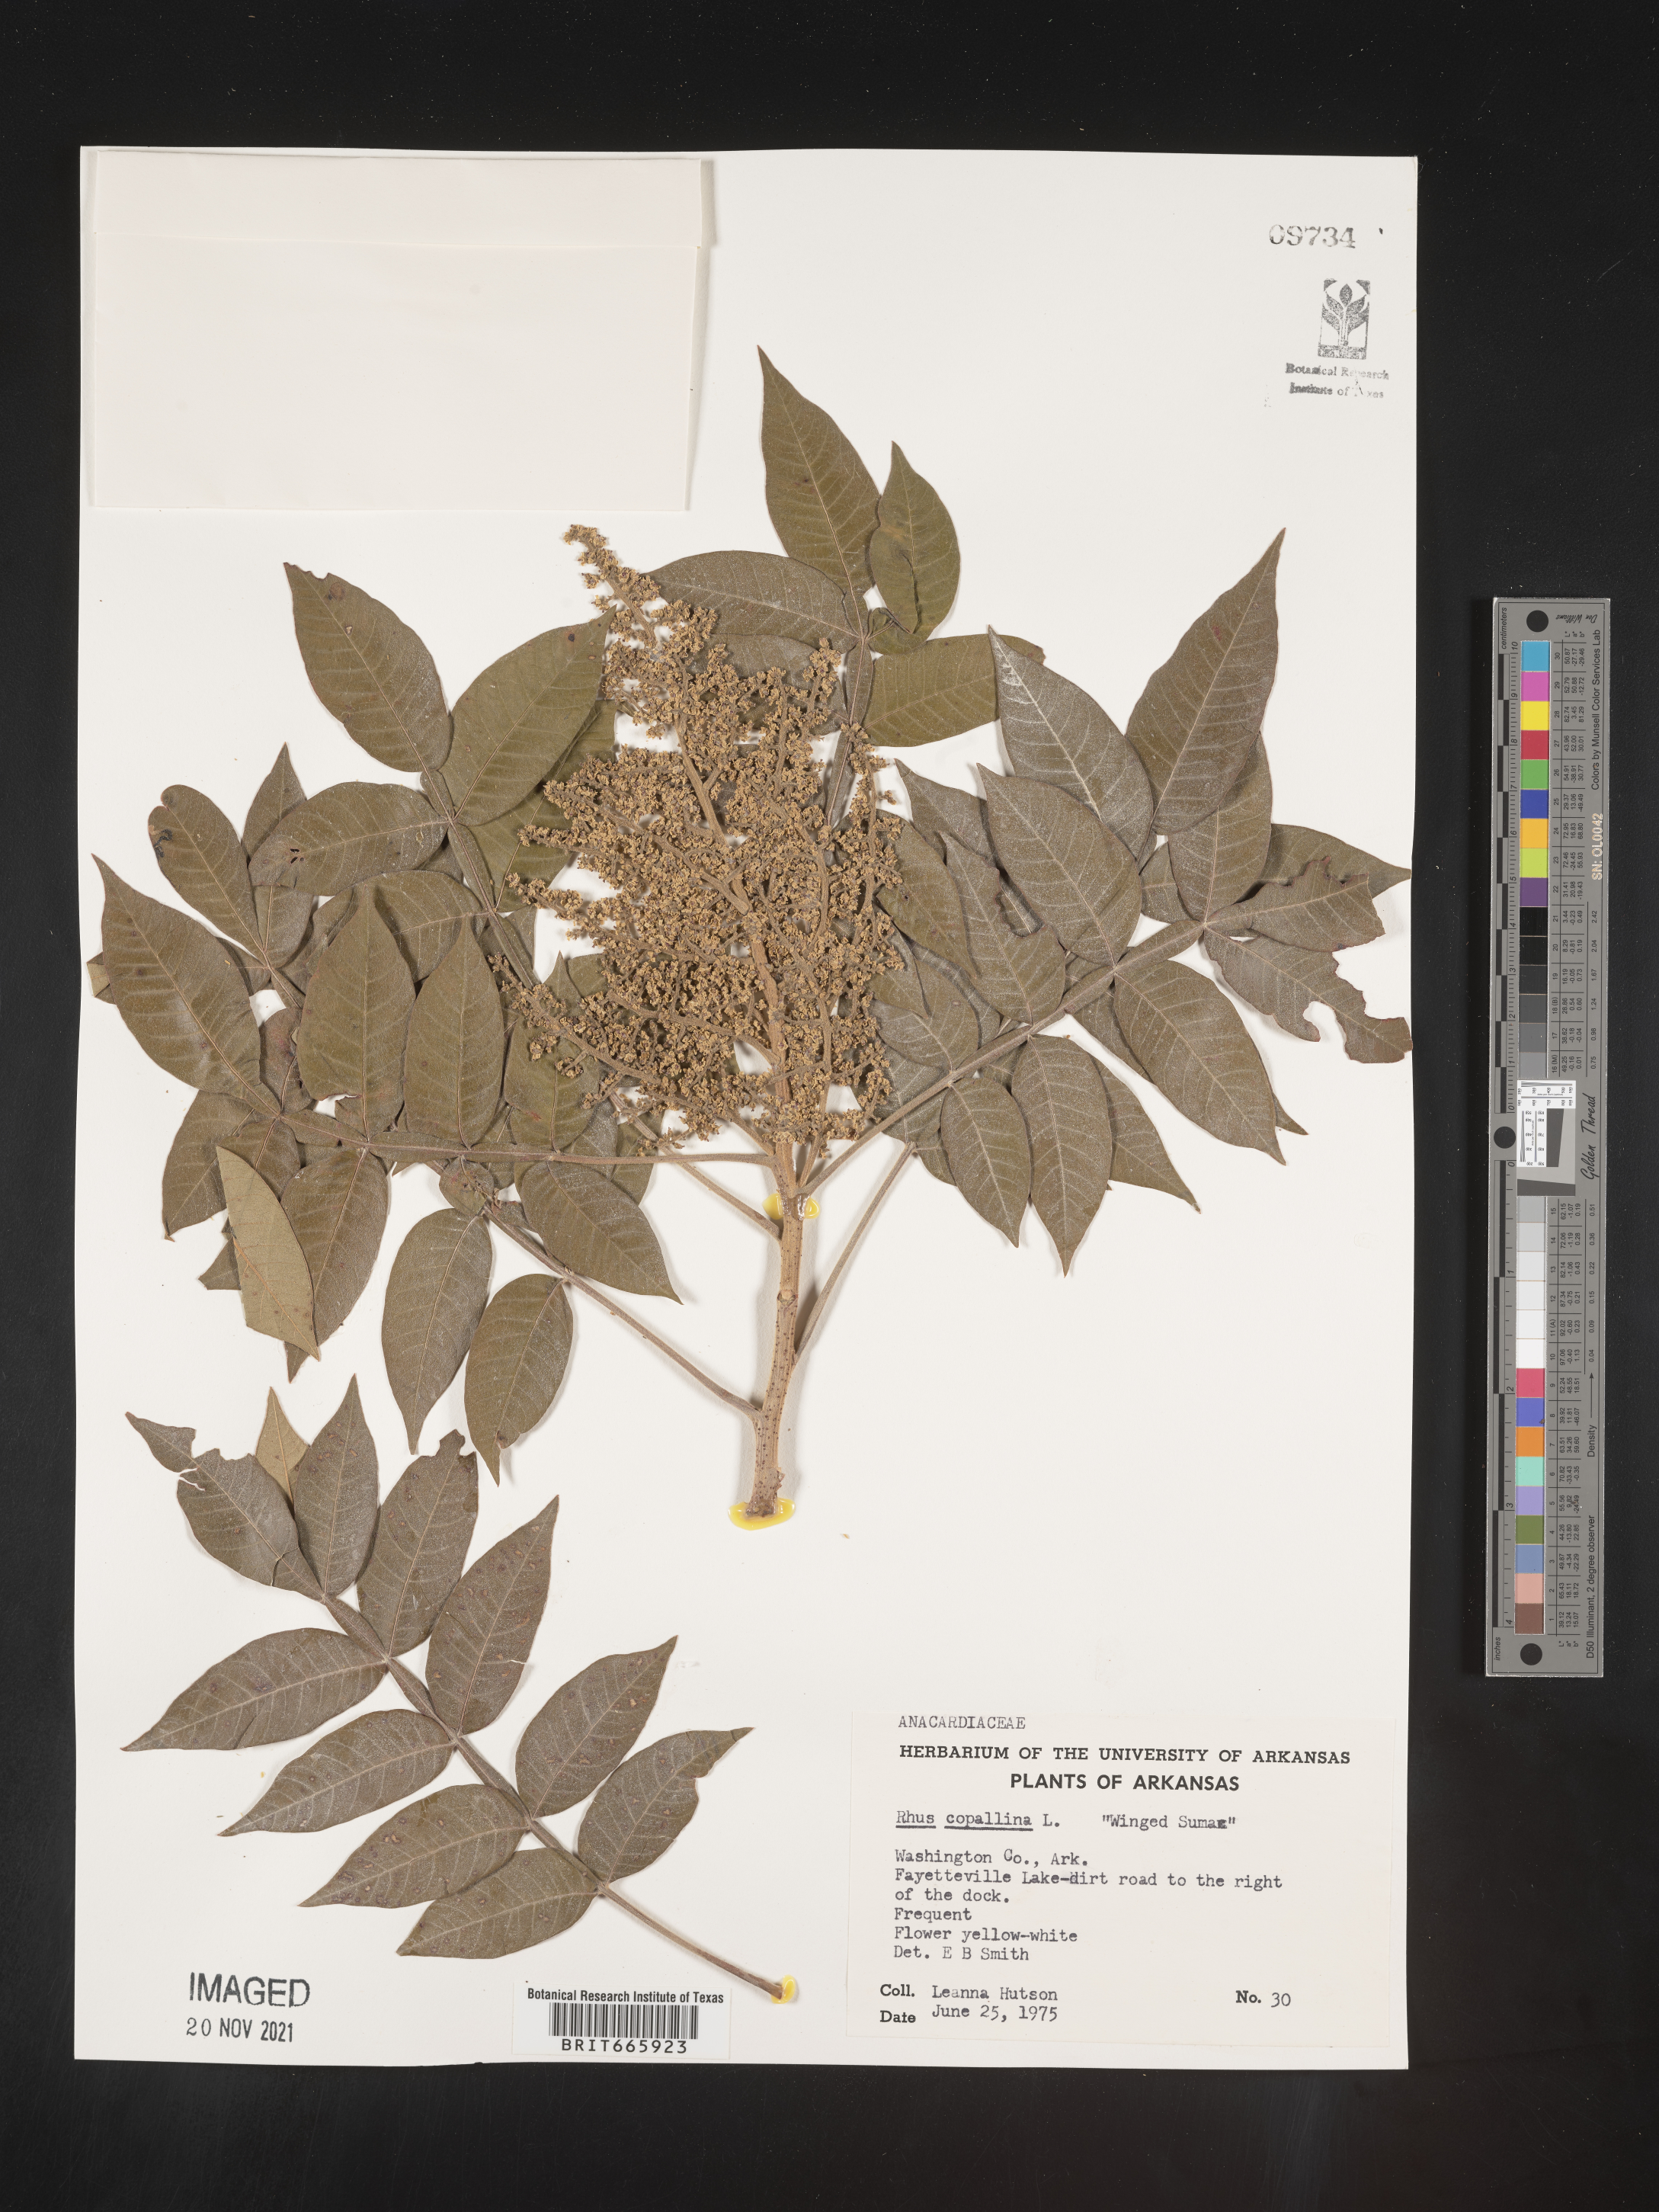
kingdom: Plantae
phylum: Tracheophyta
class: Magnoliopsida
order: Sapindales
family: Anacardiaceae
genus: Rhus
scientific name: Rhus copallina
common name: Shining sumac
